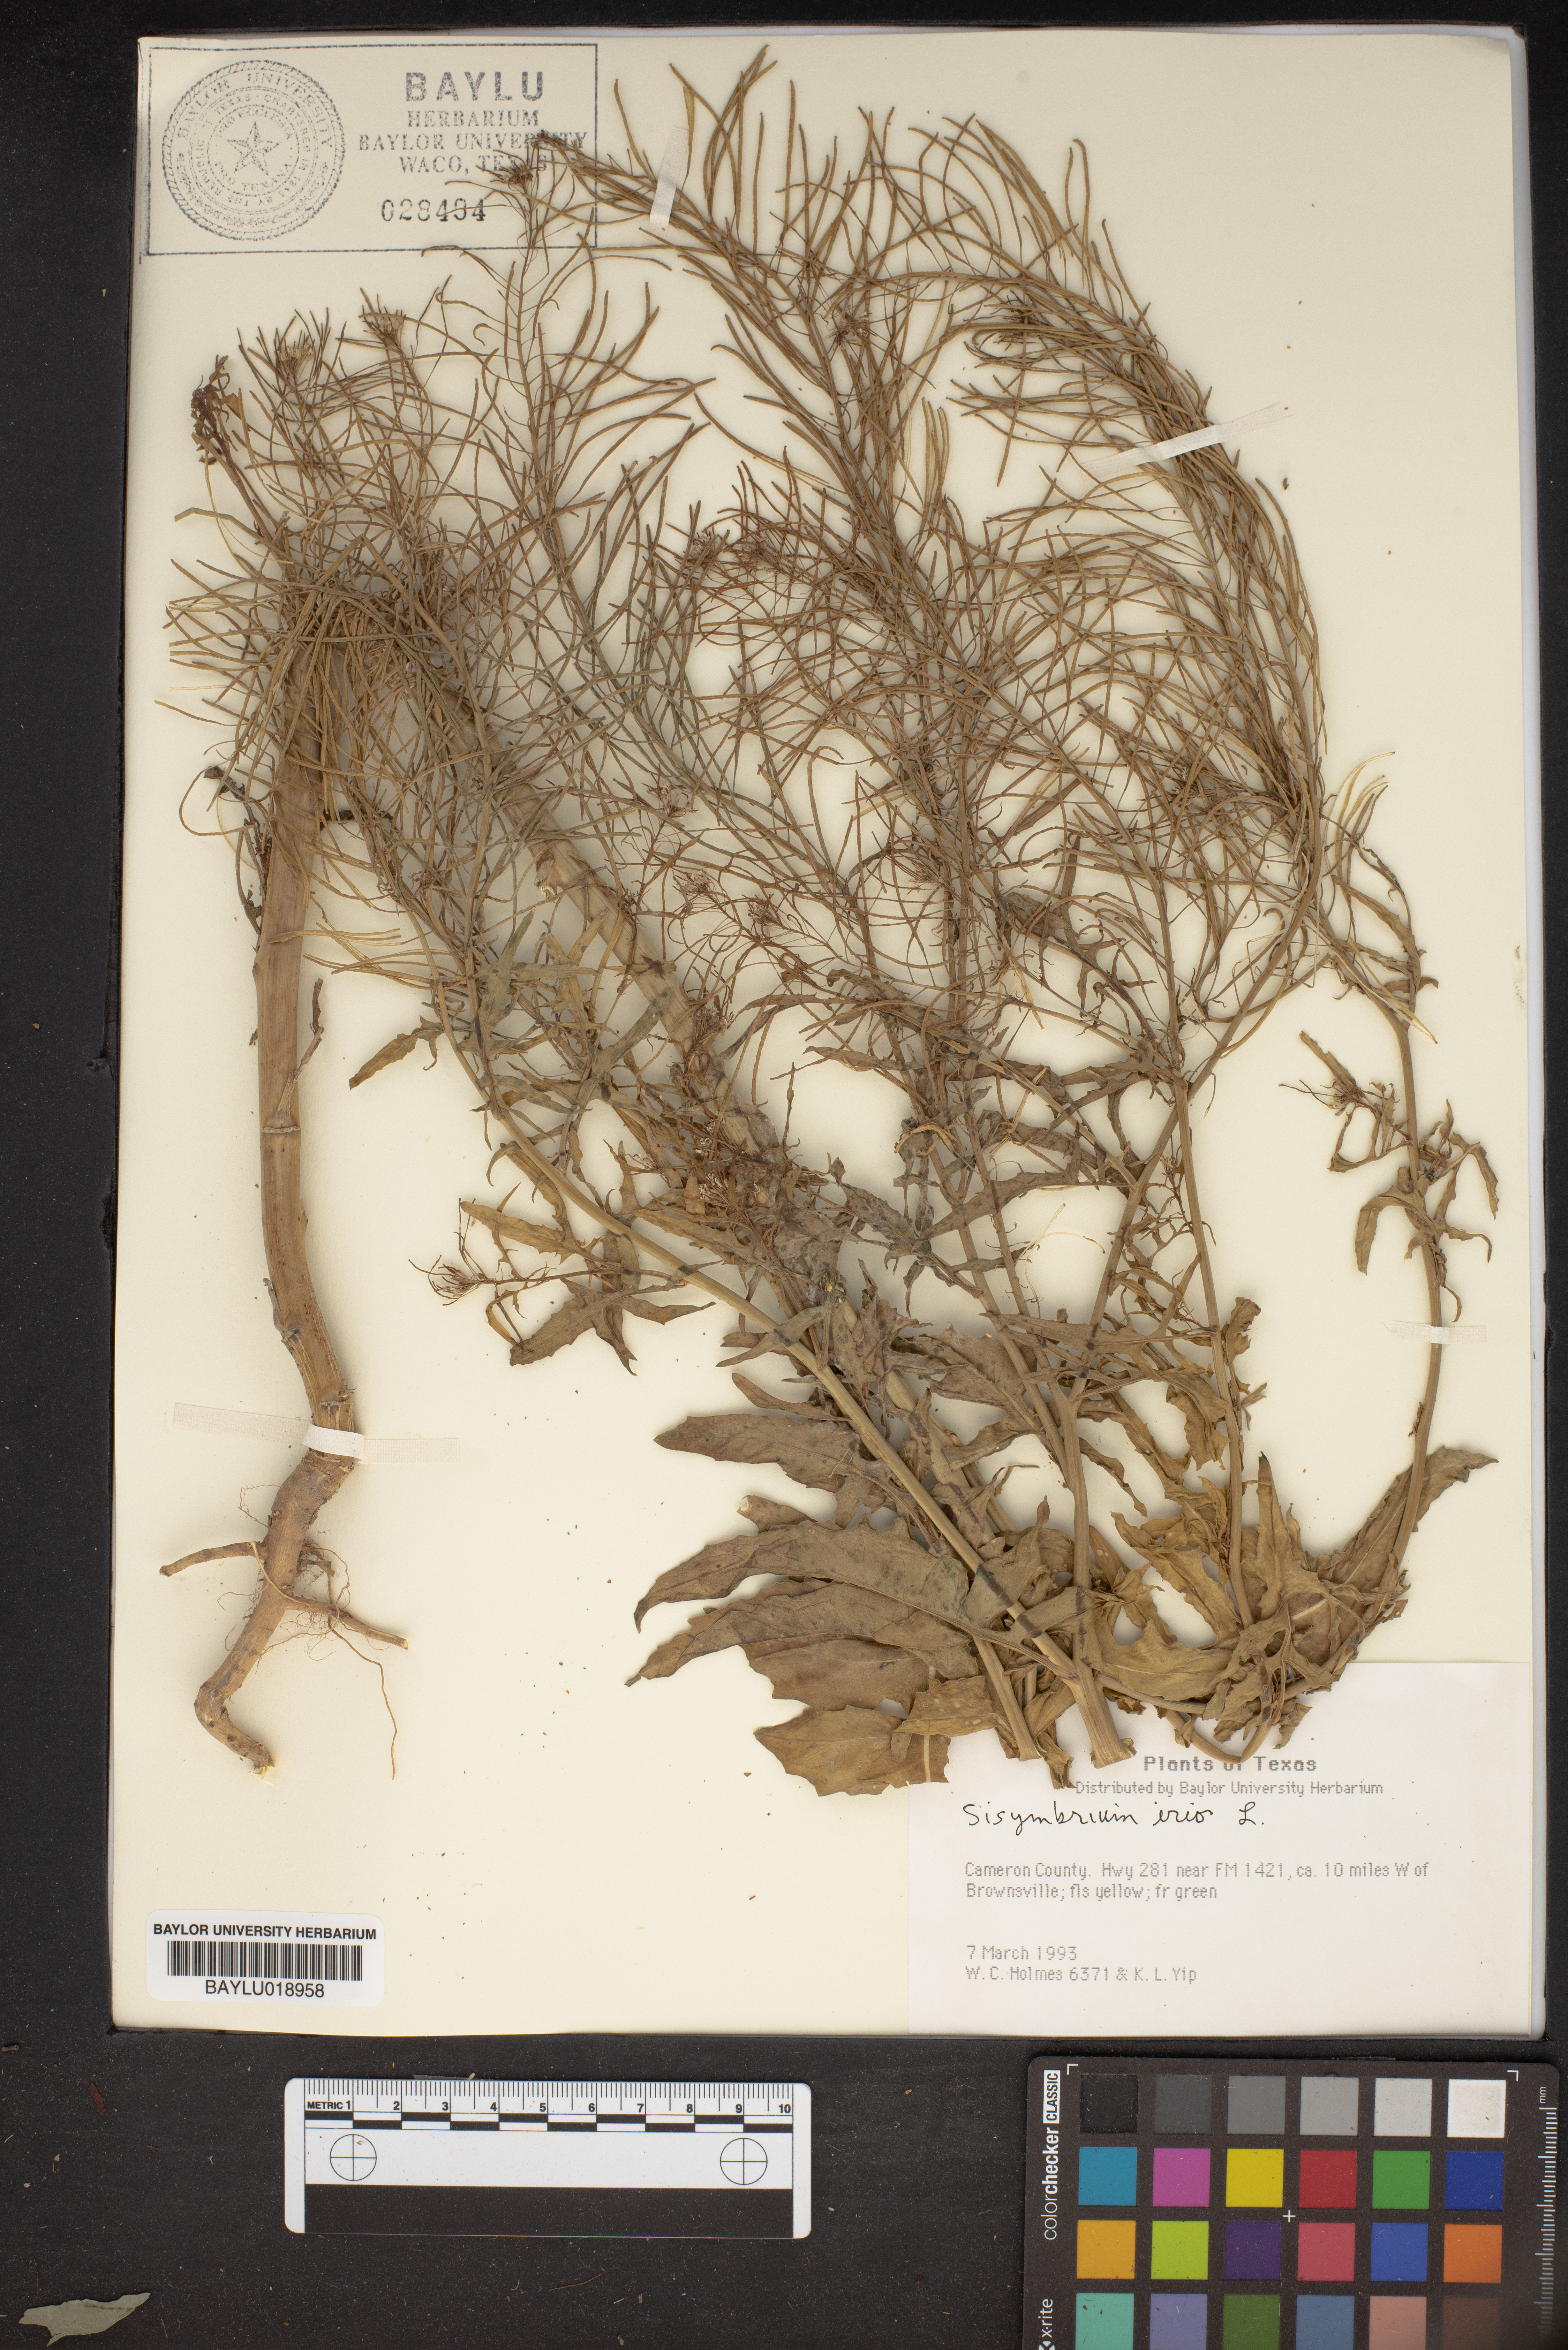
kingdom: Plantae
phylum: Tracheophyta
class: Magnoliopsida
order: Brassicales
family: Brassicaceae
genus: Sisymbrium
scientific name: Sisymbrium irio
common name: London rocket
